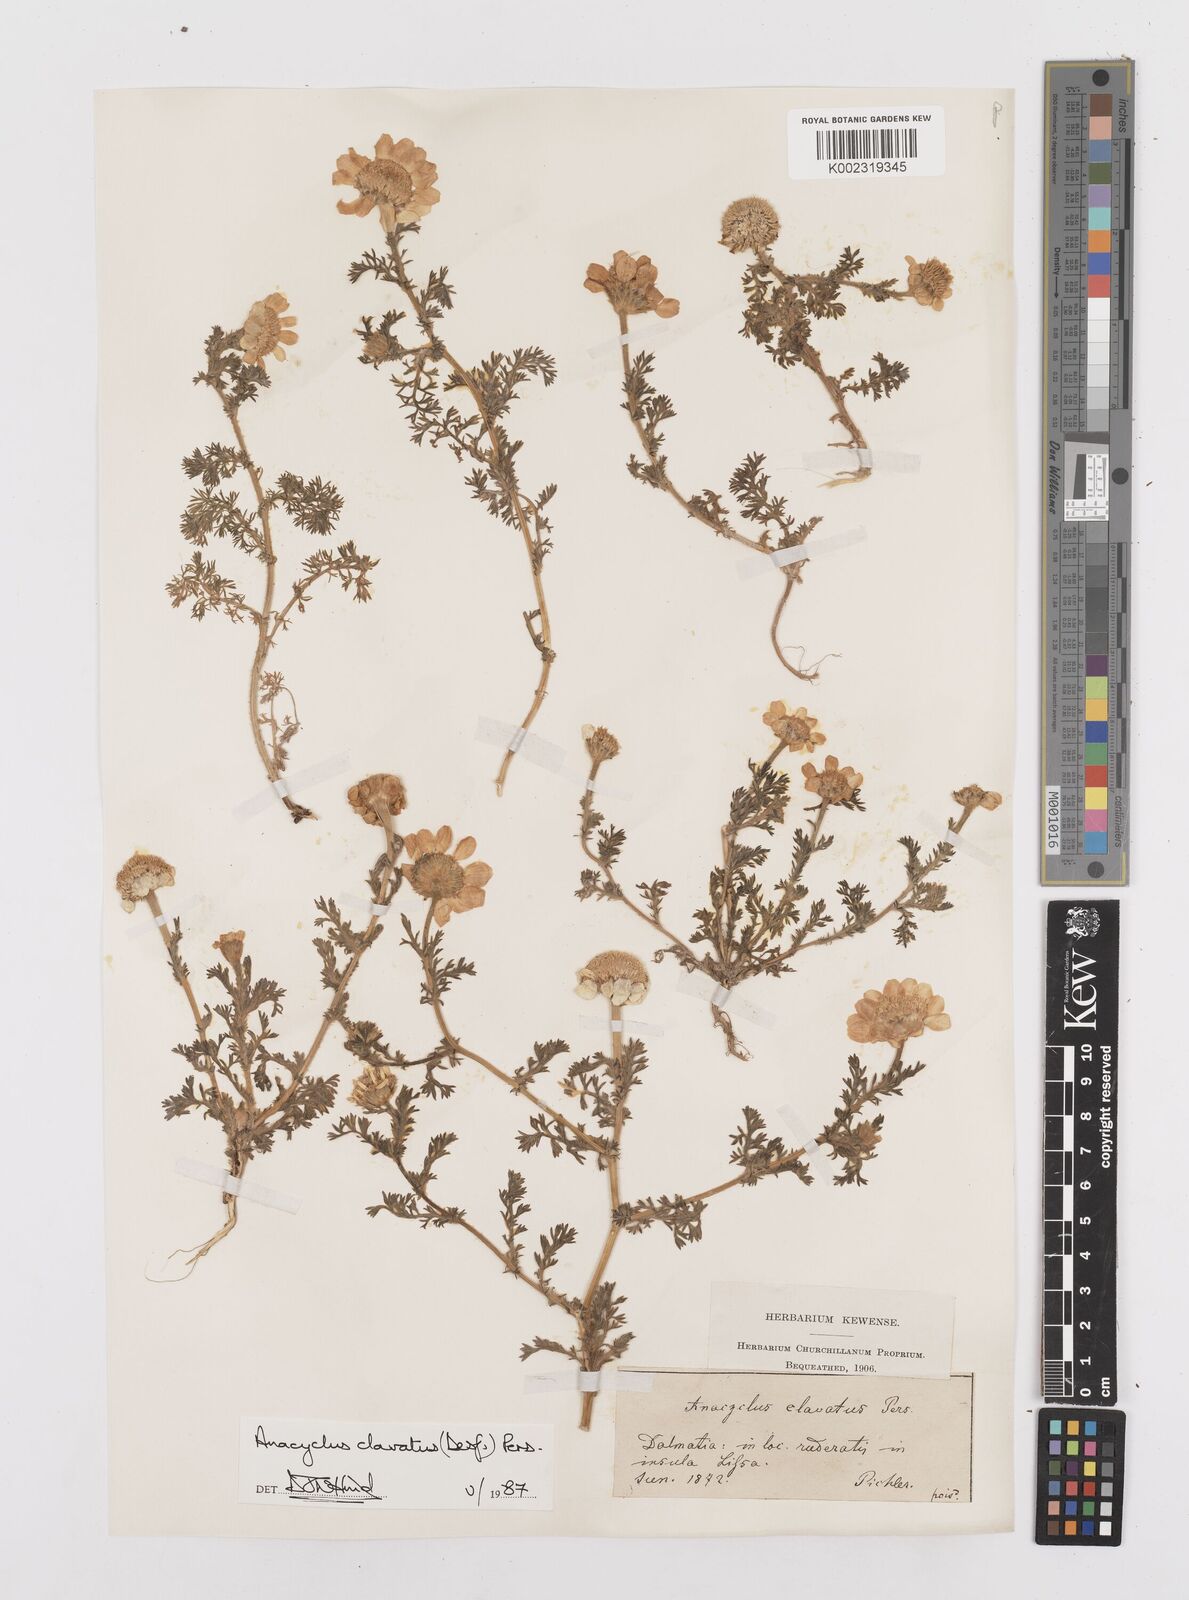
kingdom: Plantae
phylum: Tracheophyta
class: Magnoliopsida
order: Asterales
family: Asteraceae
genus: Anacyclus
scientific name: Anacyclus clavatus
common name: Whitebuttons
